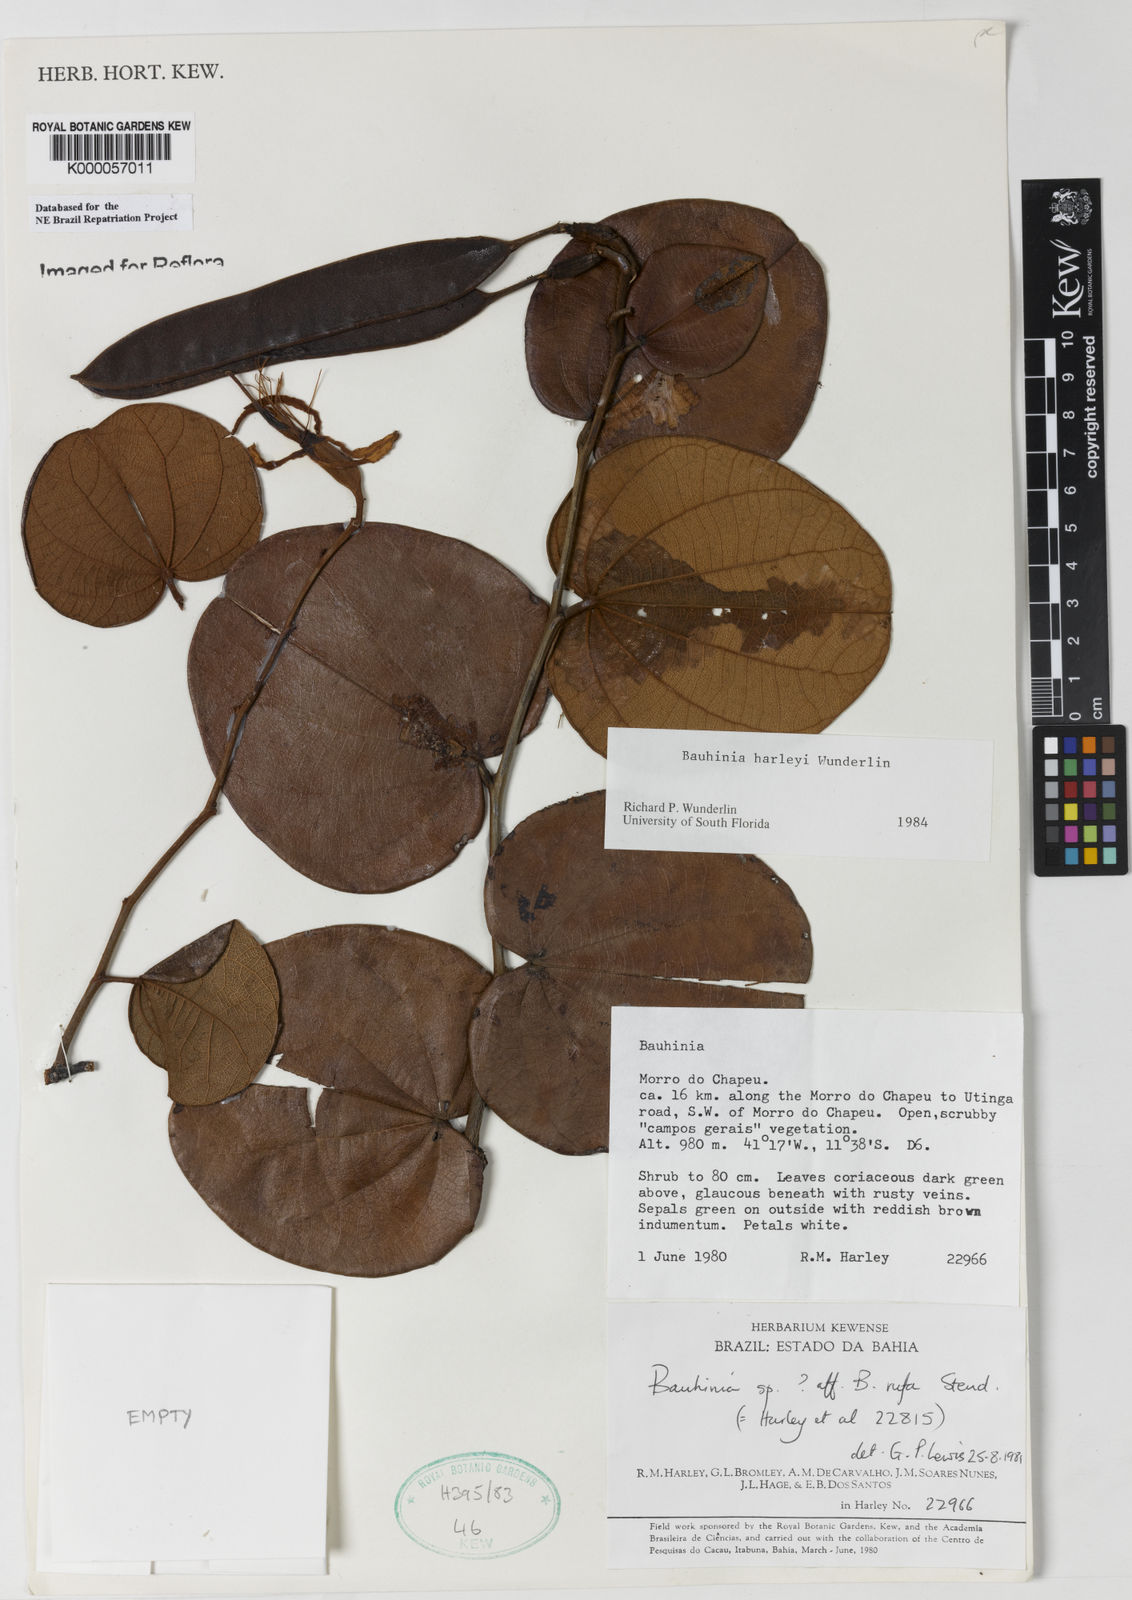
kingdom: Plantae
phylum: Tracheophyta
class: Magnoliopsida
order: Fabales
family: Fabaceae
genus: Bauhinia
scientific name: Bauhinia
